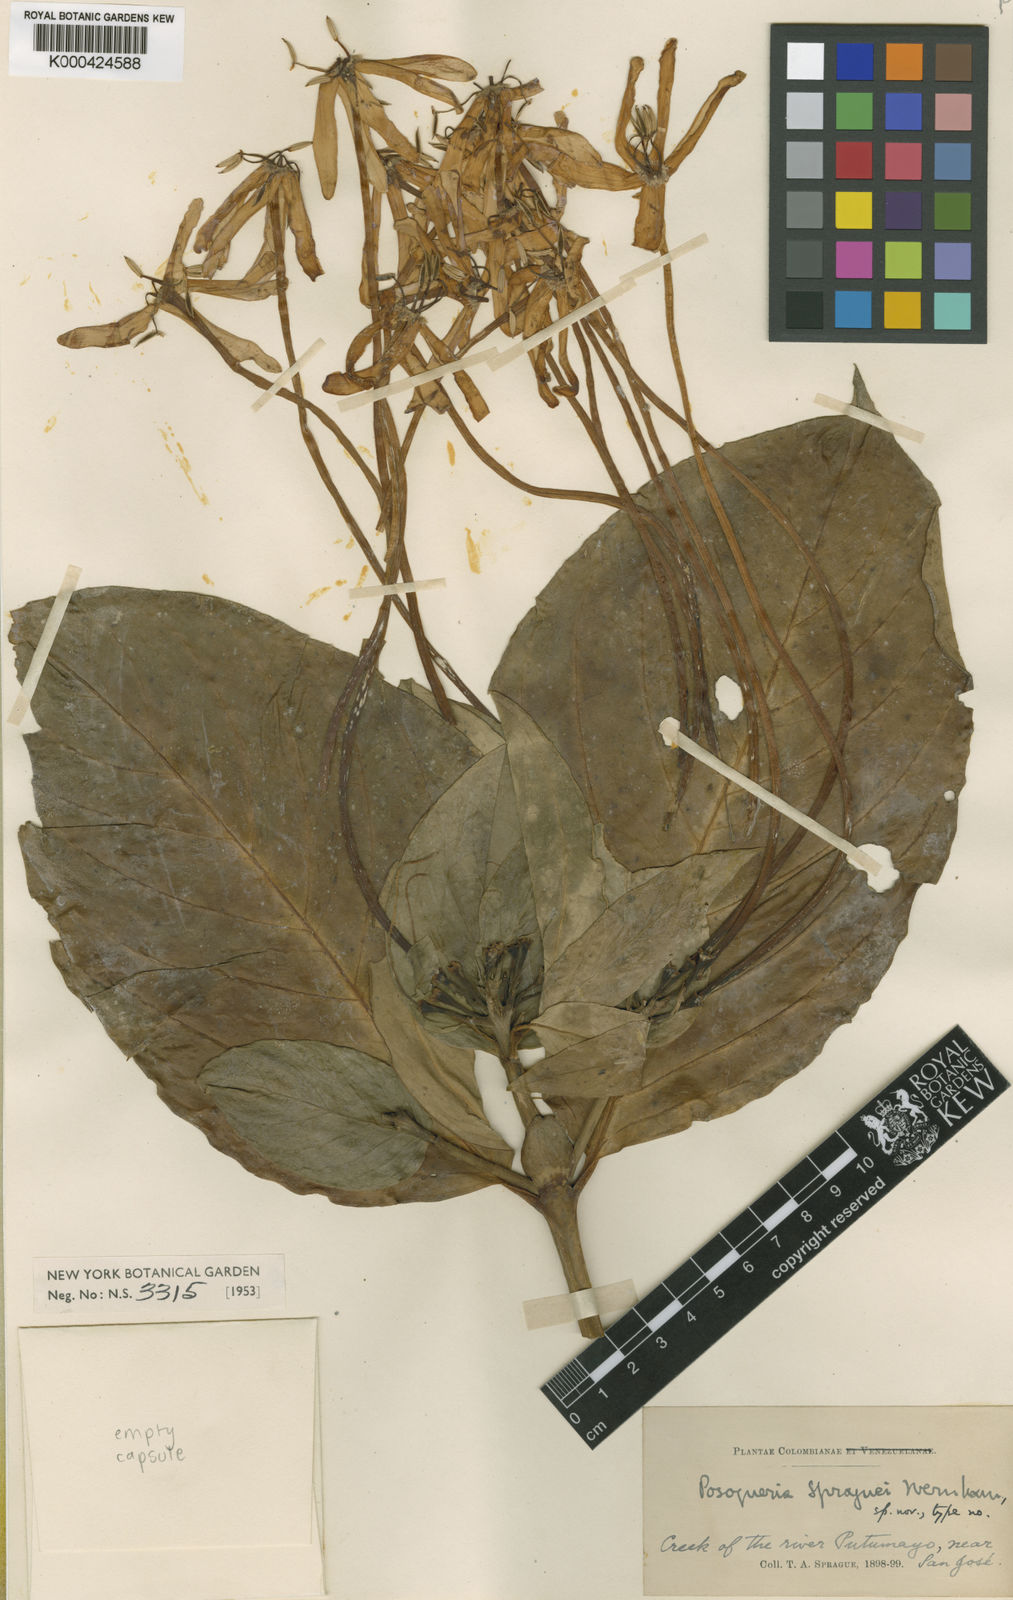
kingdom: Plantae
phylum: Tracheophyta
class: Magnoliopsida
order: Gentianales
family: Rubiaceae
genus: Posoqueria
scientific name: Posoqueria latifolia
